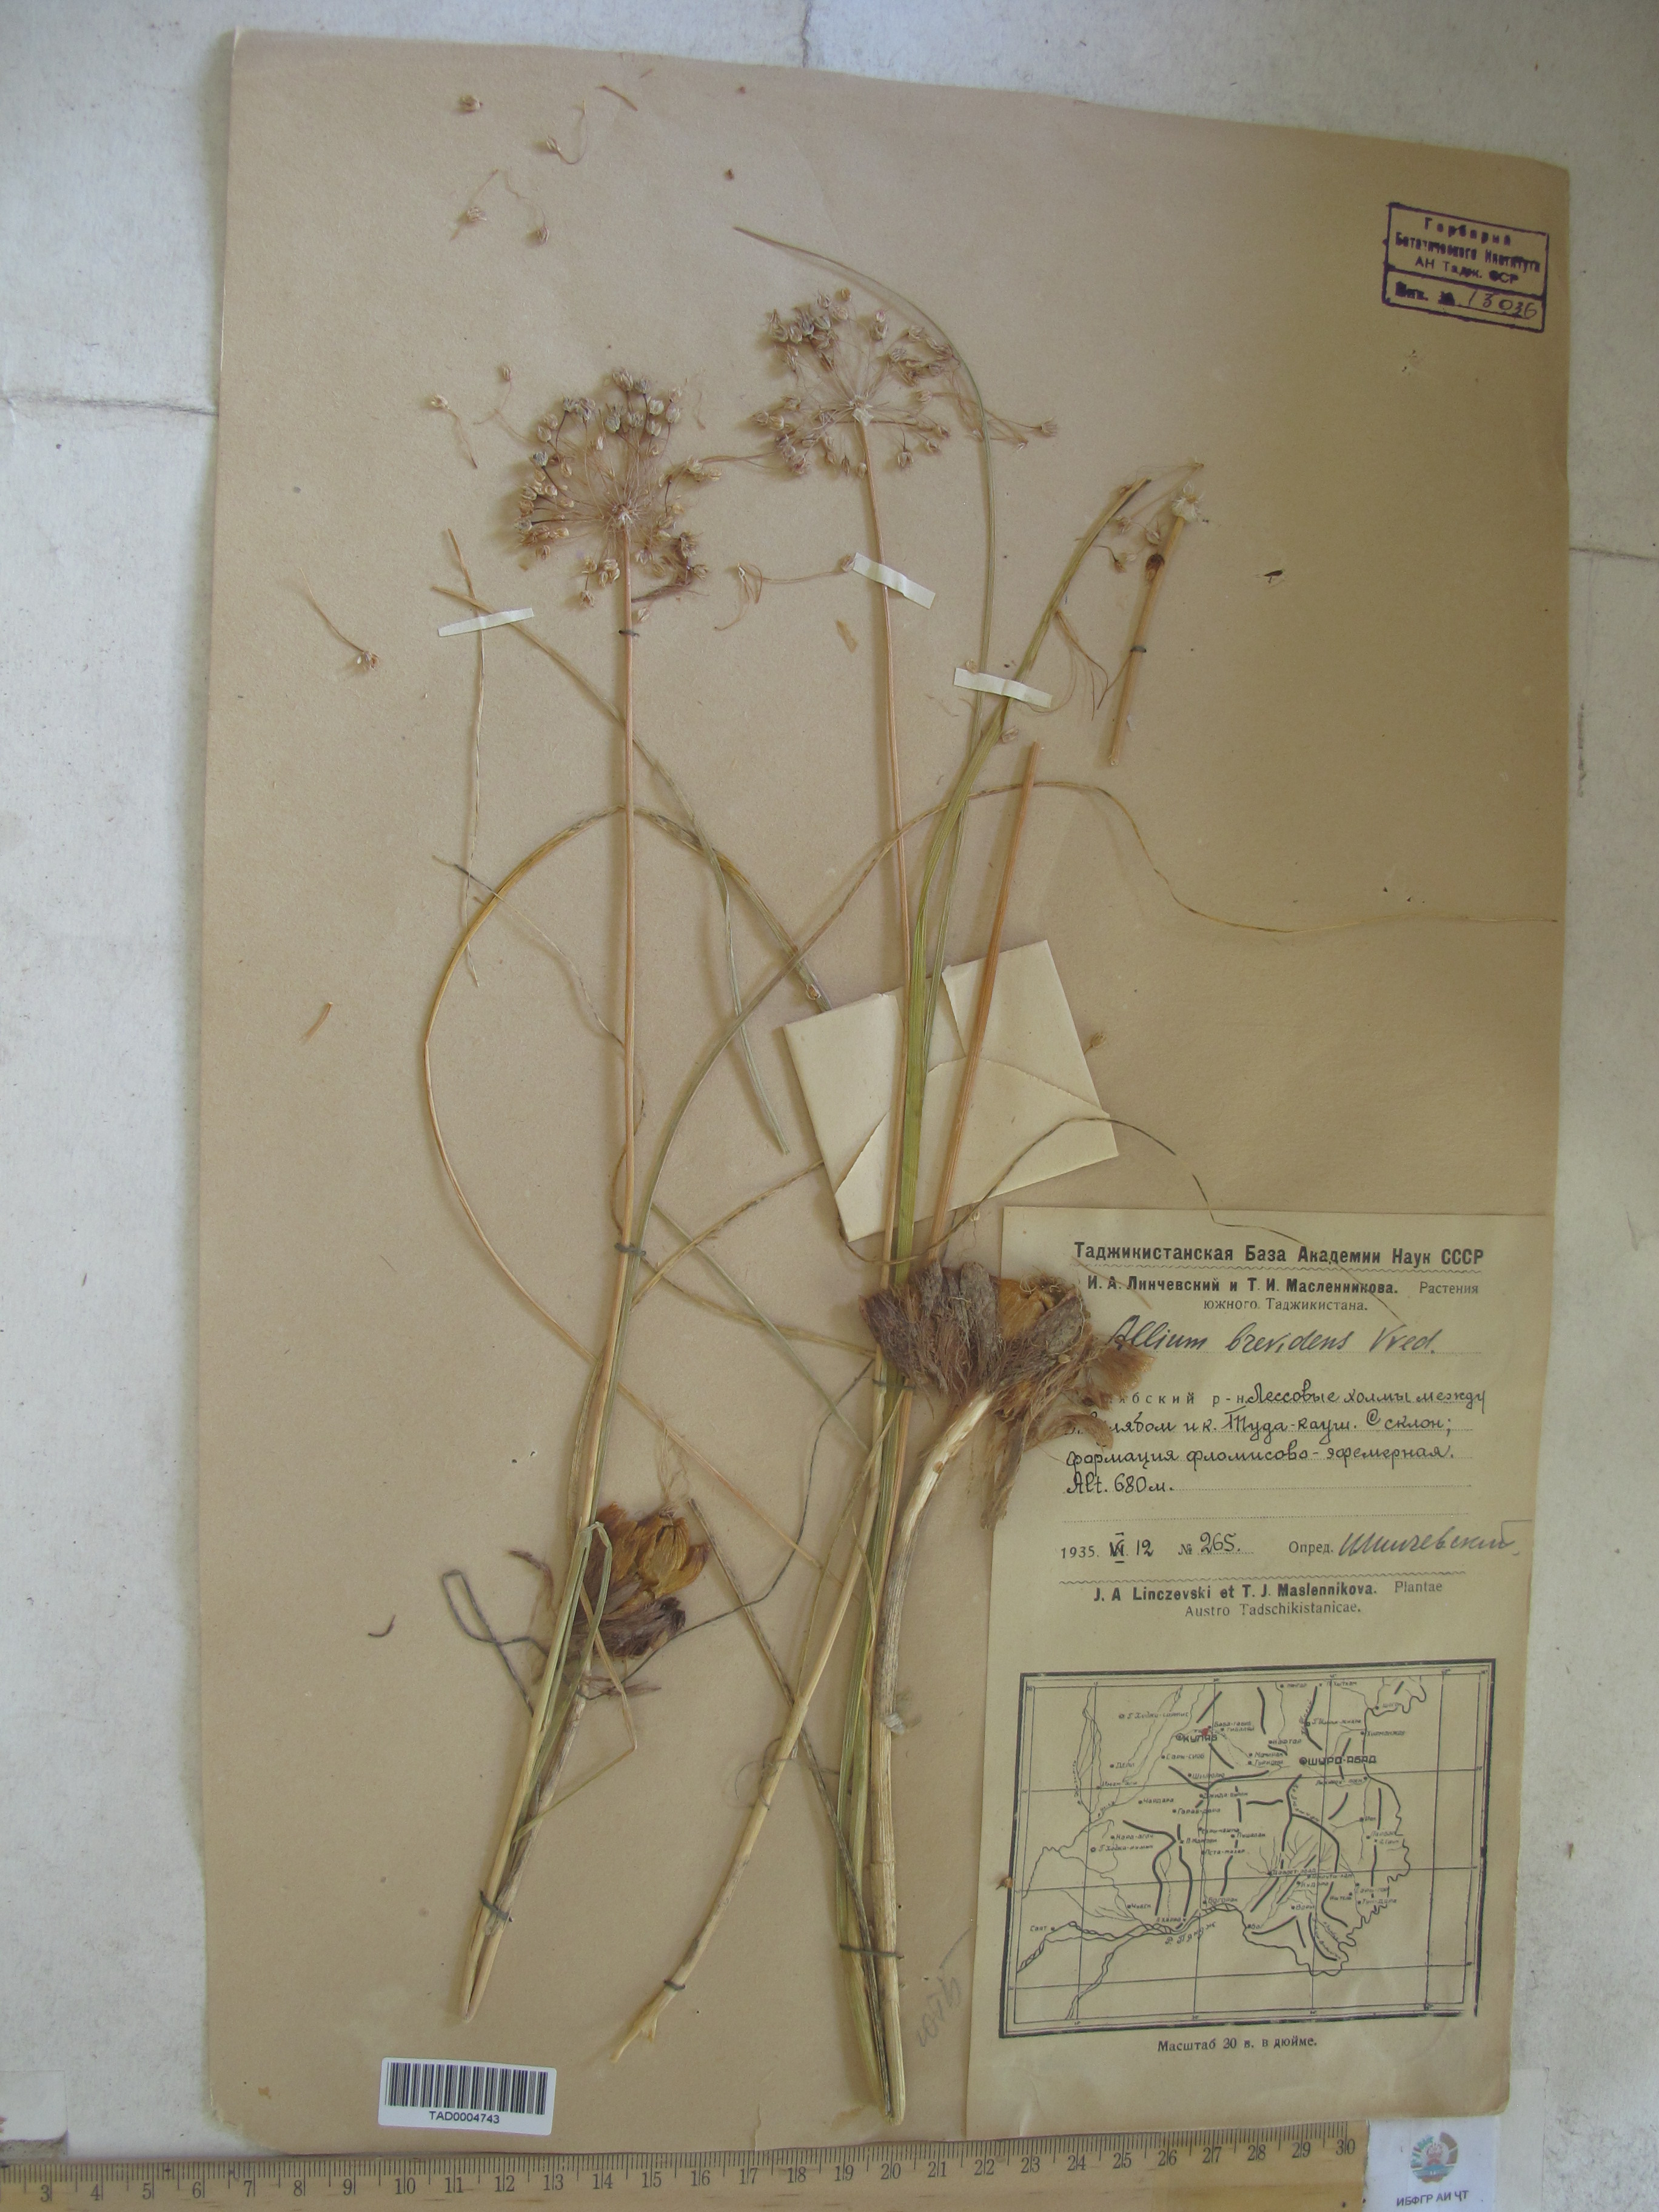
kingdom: Plantae
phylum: Tracheophyta
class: Liliopsida
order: Asparagales
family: Amaryllidaceae
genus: Allium
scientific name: Allium brevidens
